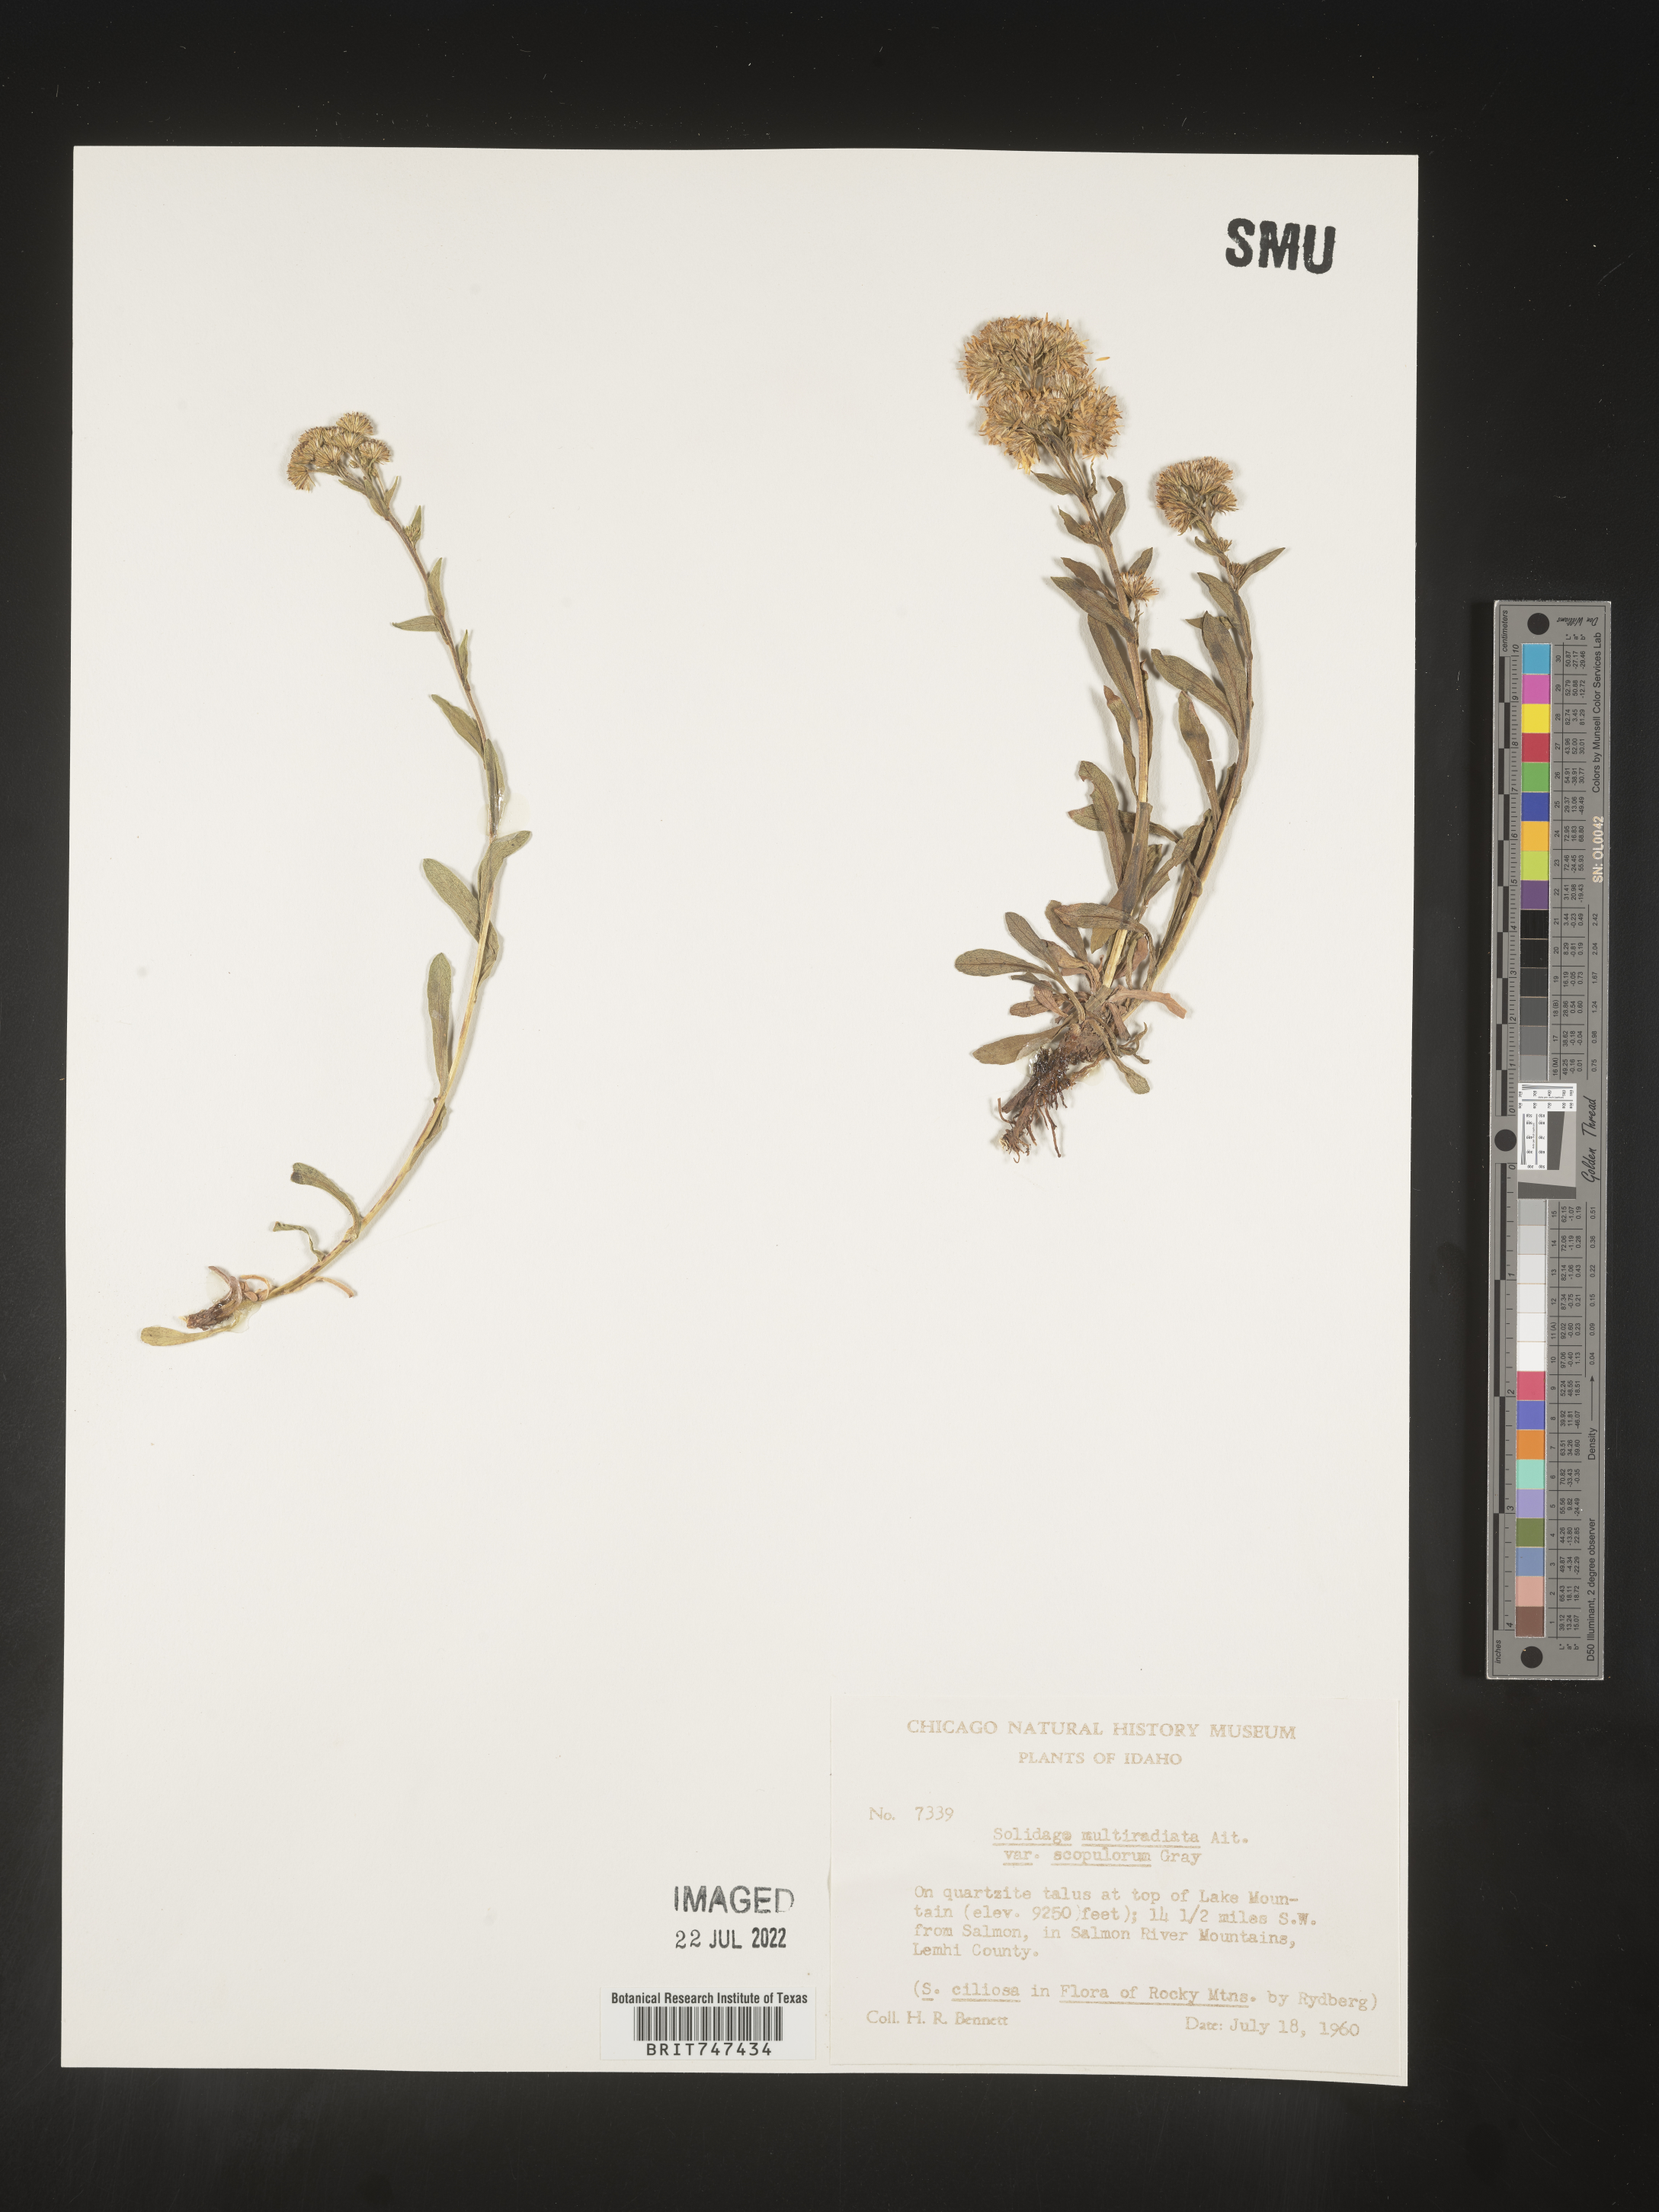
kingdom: Plantae
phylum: Tracheophyta
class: Magnoliopsida
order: Asterales
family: Asteraceae
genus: Solidago
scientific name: Solidago multiradiata
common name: Northern goldenrod
